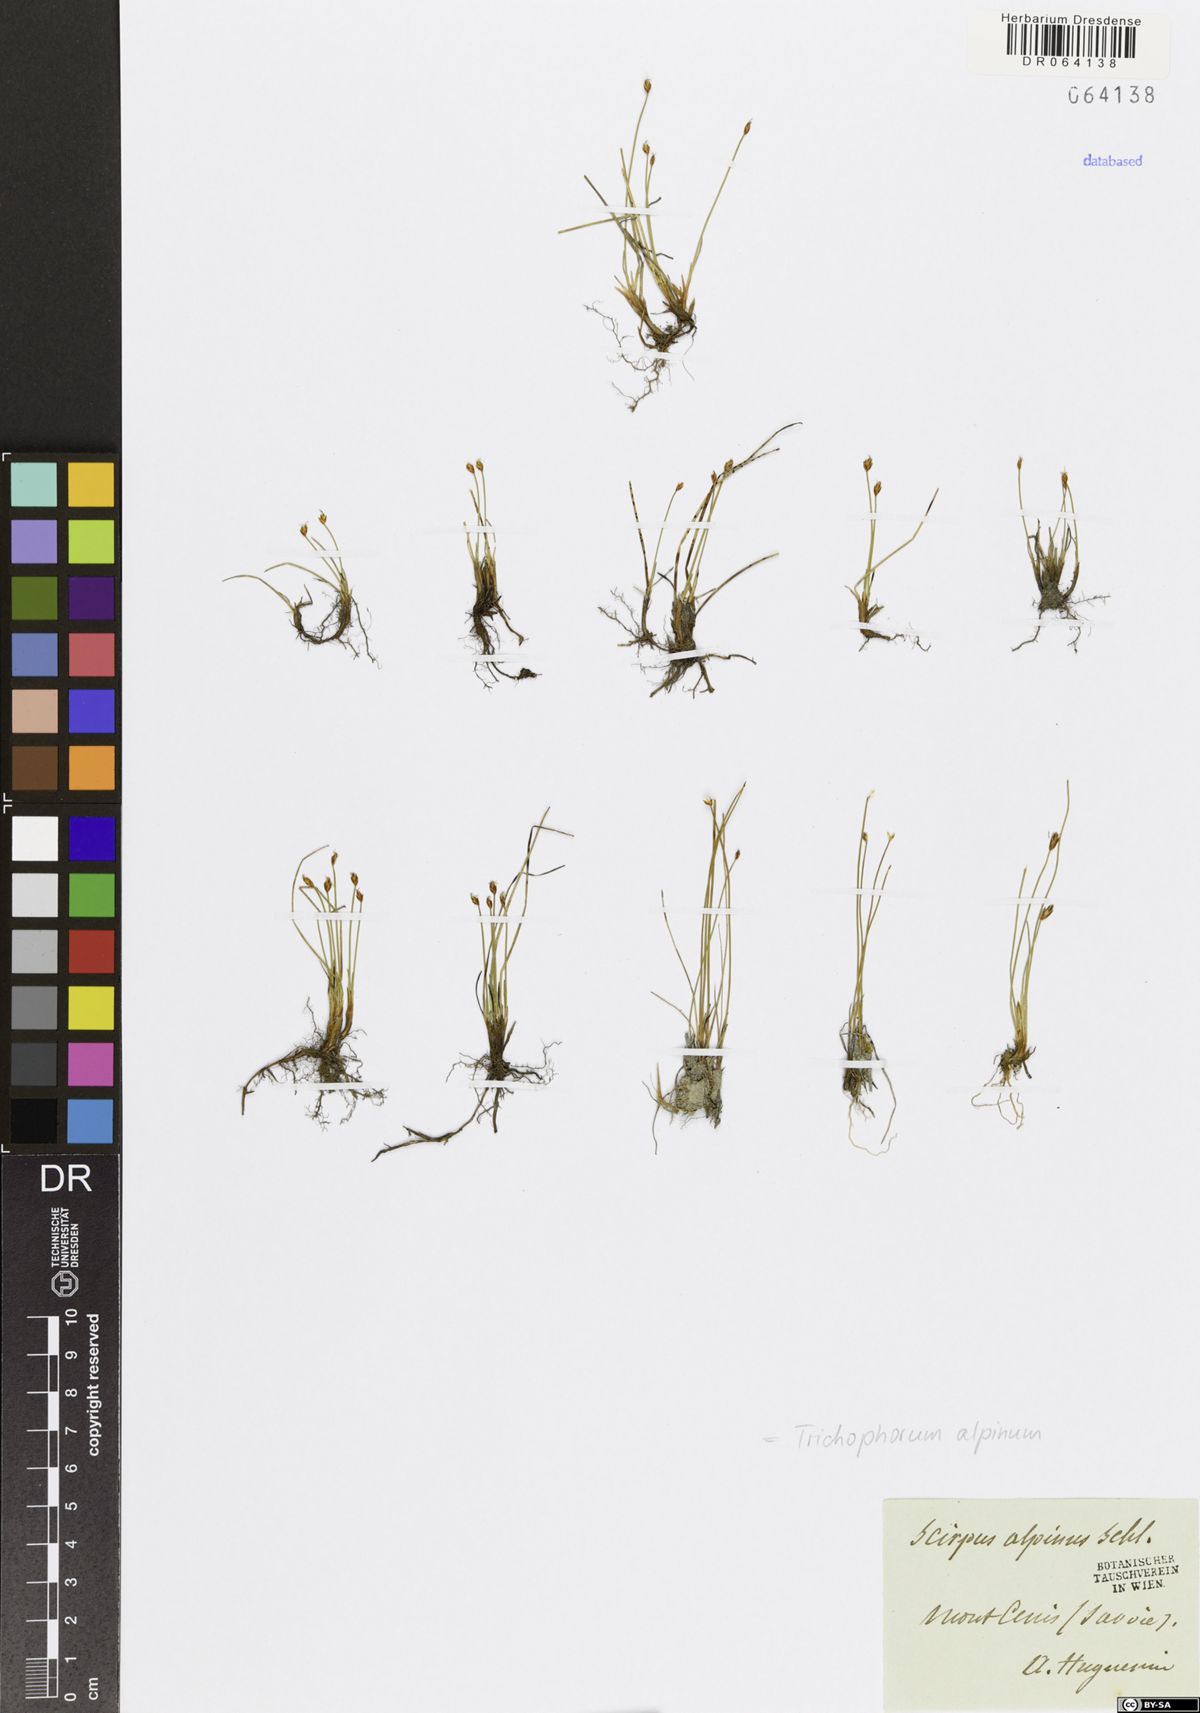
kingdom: Plantae
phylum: Tracheophyta
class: Liliopsida
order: Poales
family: Cyperaceae
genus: Trichophorum
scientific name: Trichophorum alpinum
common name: Alpine bulrush
